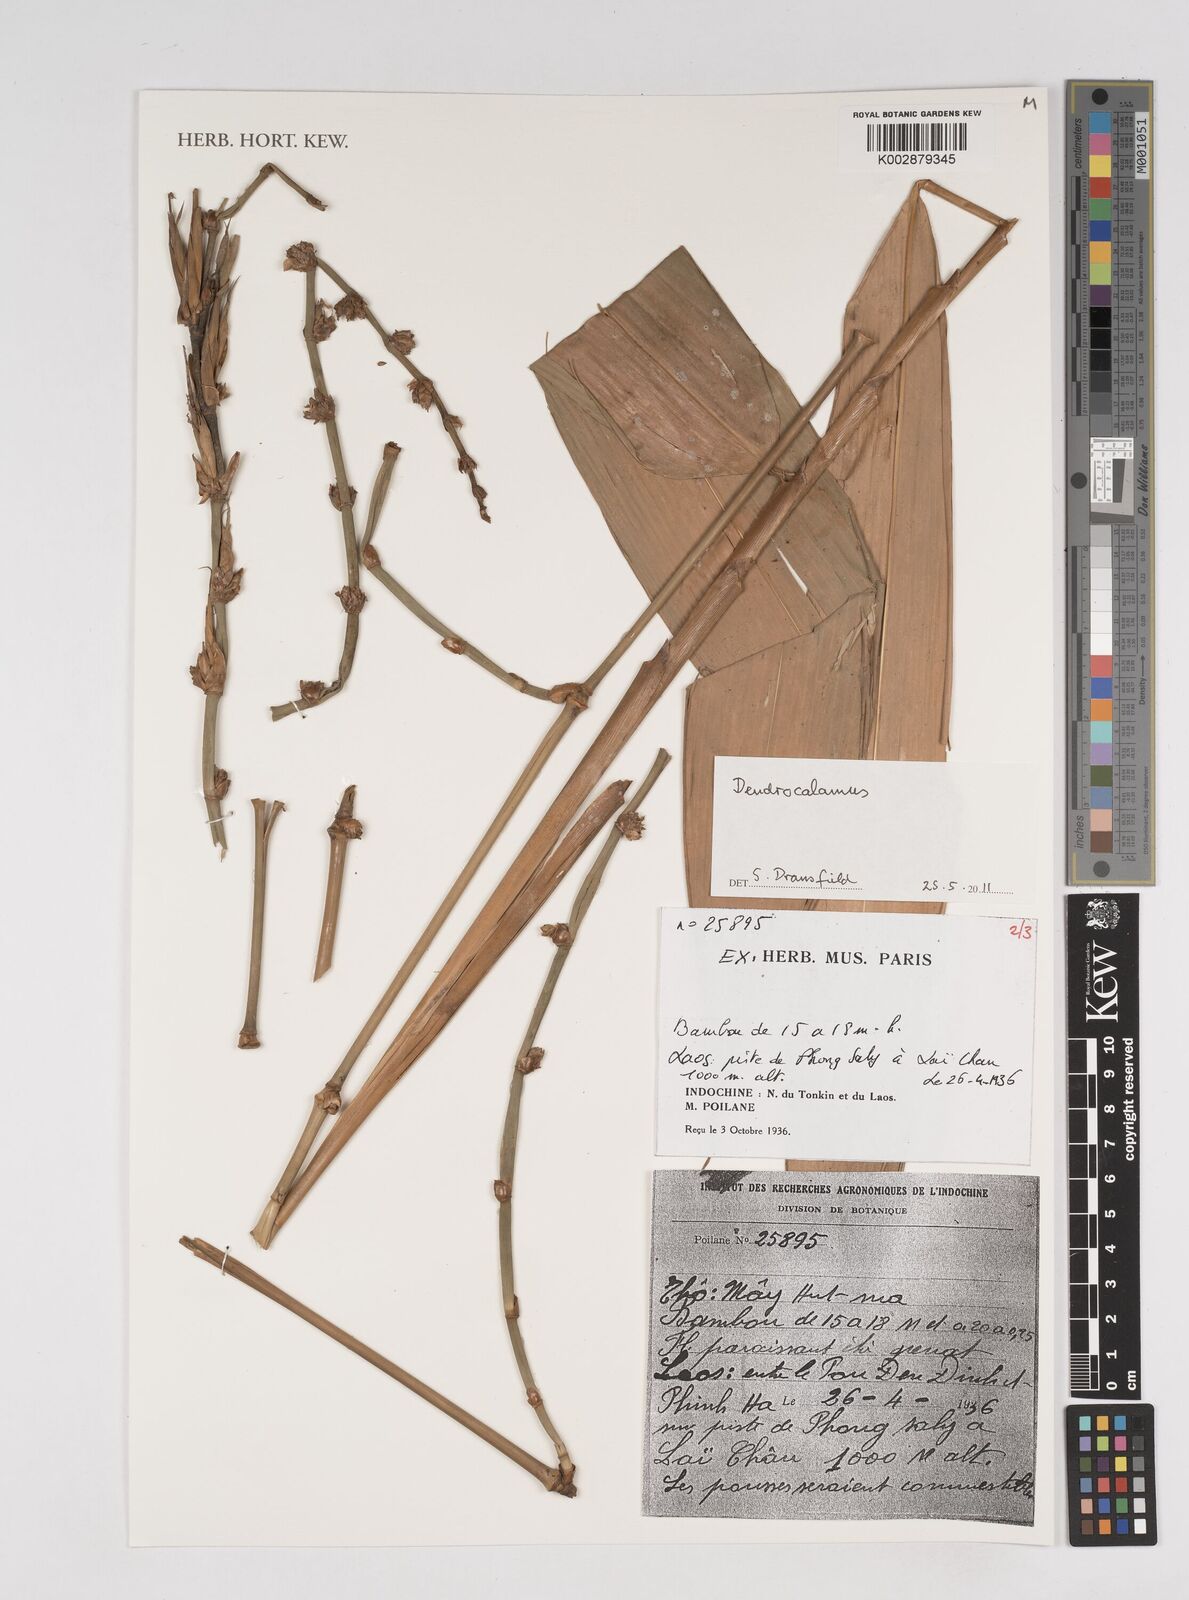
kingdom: Plantae
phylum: Tracheophyta
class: Liliopsida
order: Poales
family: Poaceae
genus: Dendrocalamus
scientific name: Dendrocalamus
